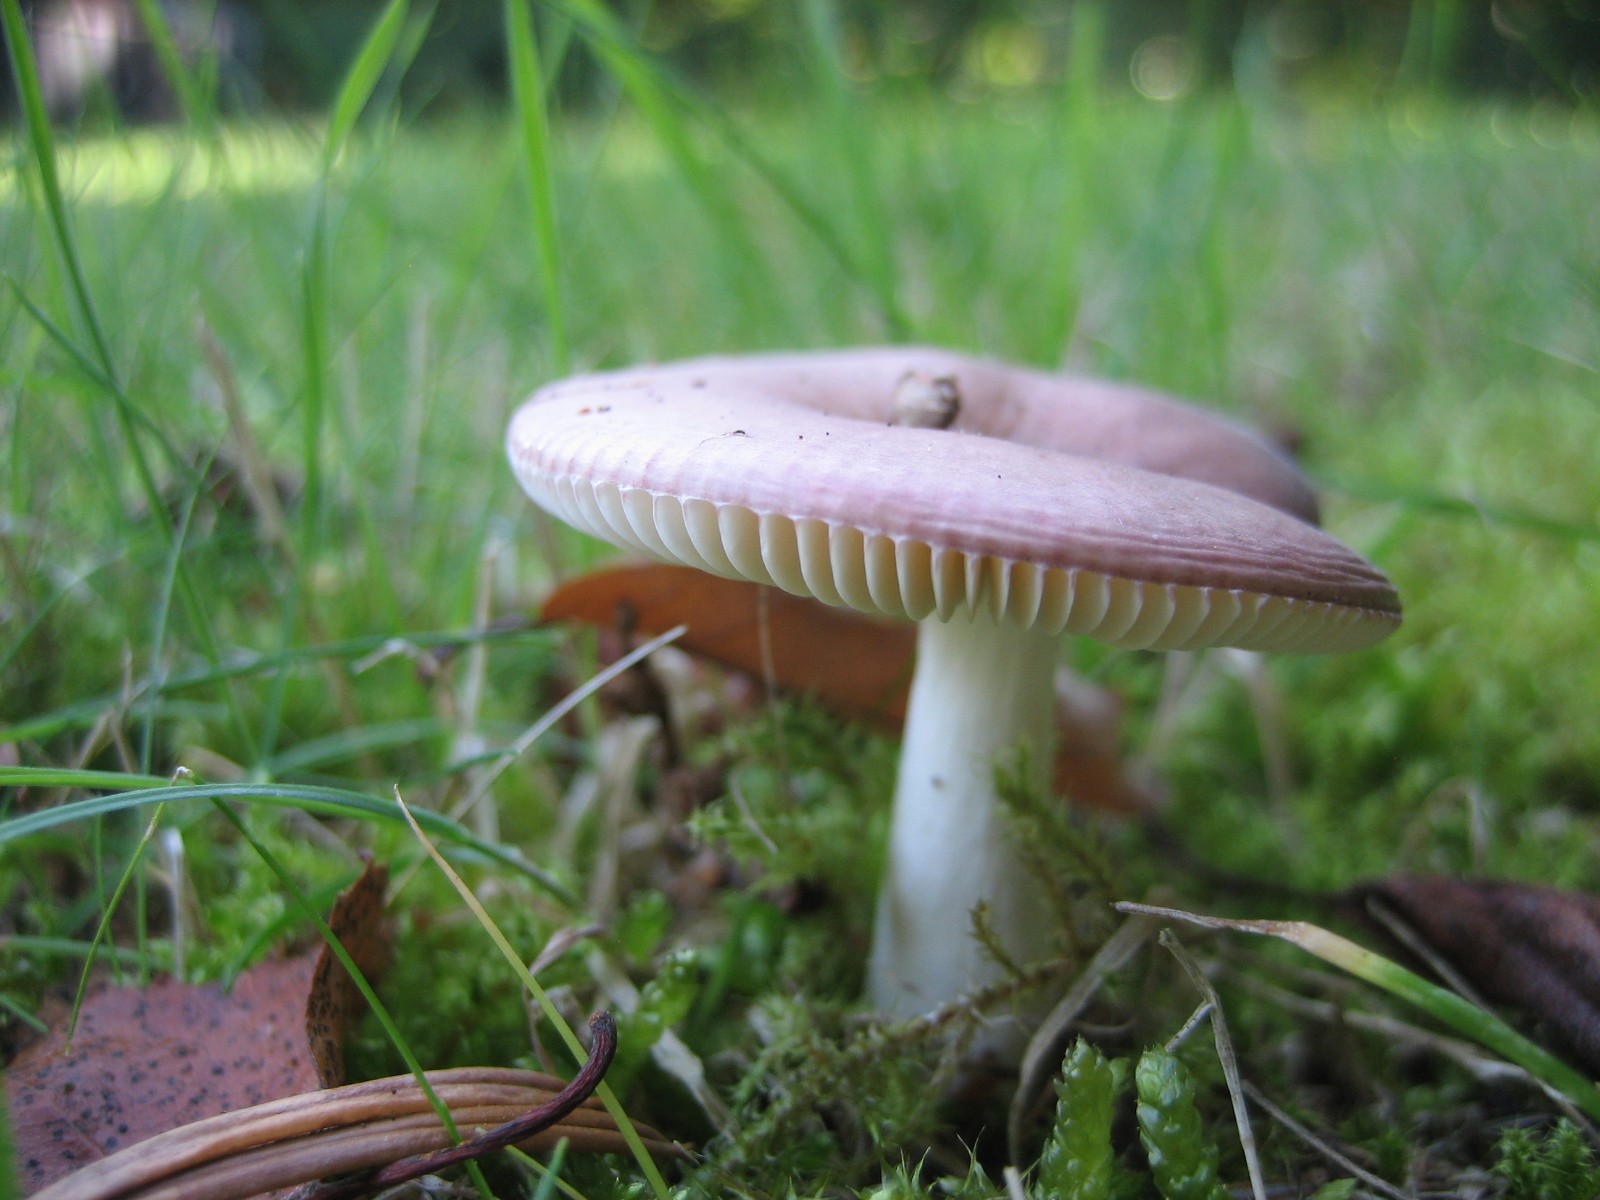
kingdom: Fungi
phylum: Basidiomycota
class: Agaricomycetes
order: Russulales
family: Russulaceae
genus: Russula
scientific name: Russula versicolor
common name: foranderlig skørhat
